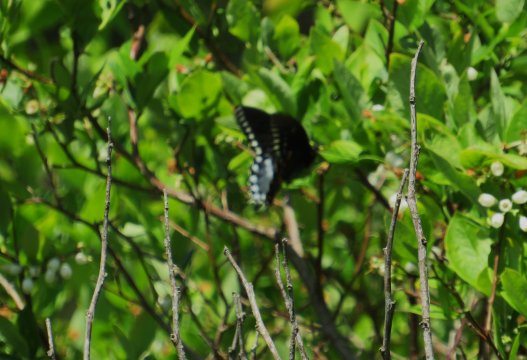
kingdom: Animalia
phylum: Arthropoda
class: Insecta
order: Lepidoptera
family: Papilionidae
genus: Pterourus
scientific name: Pterourus troilus
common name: Spicebush Swallowtail
